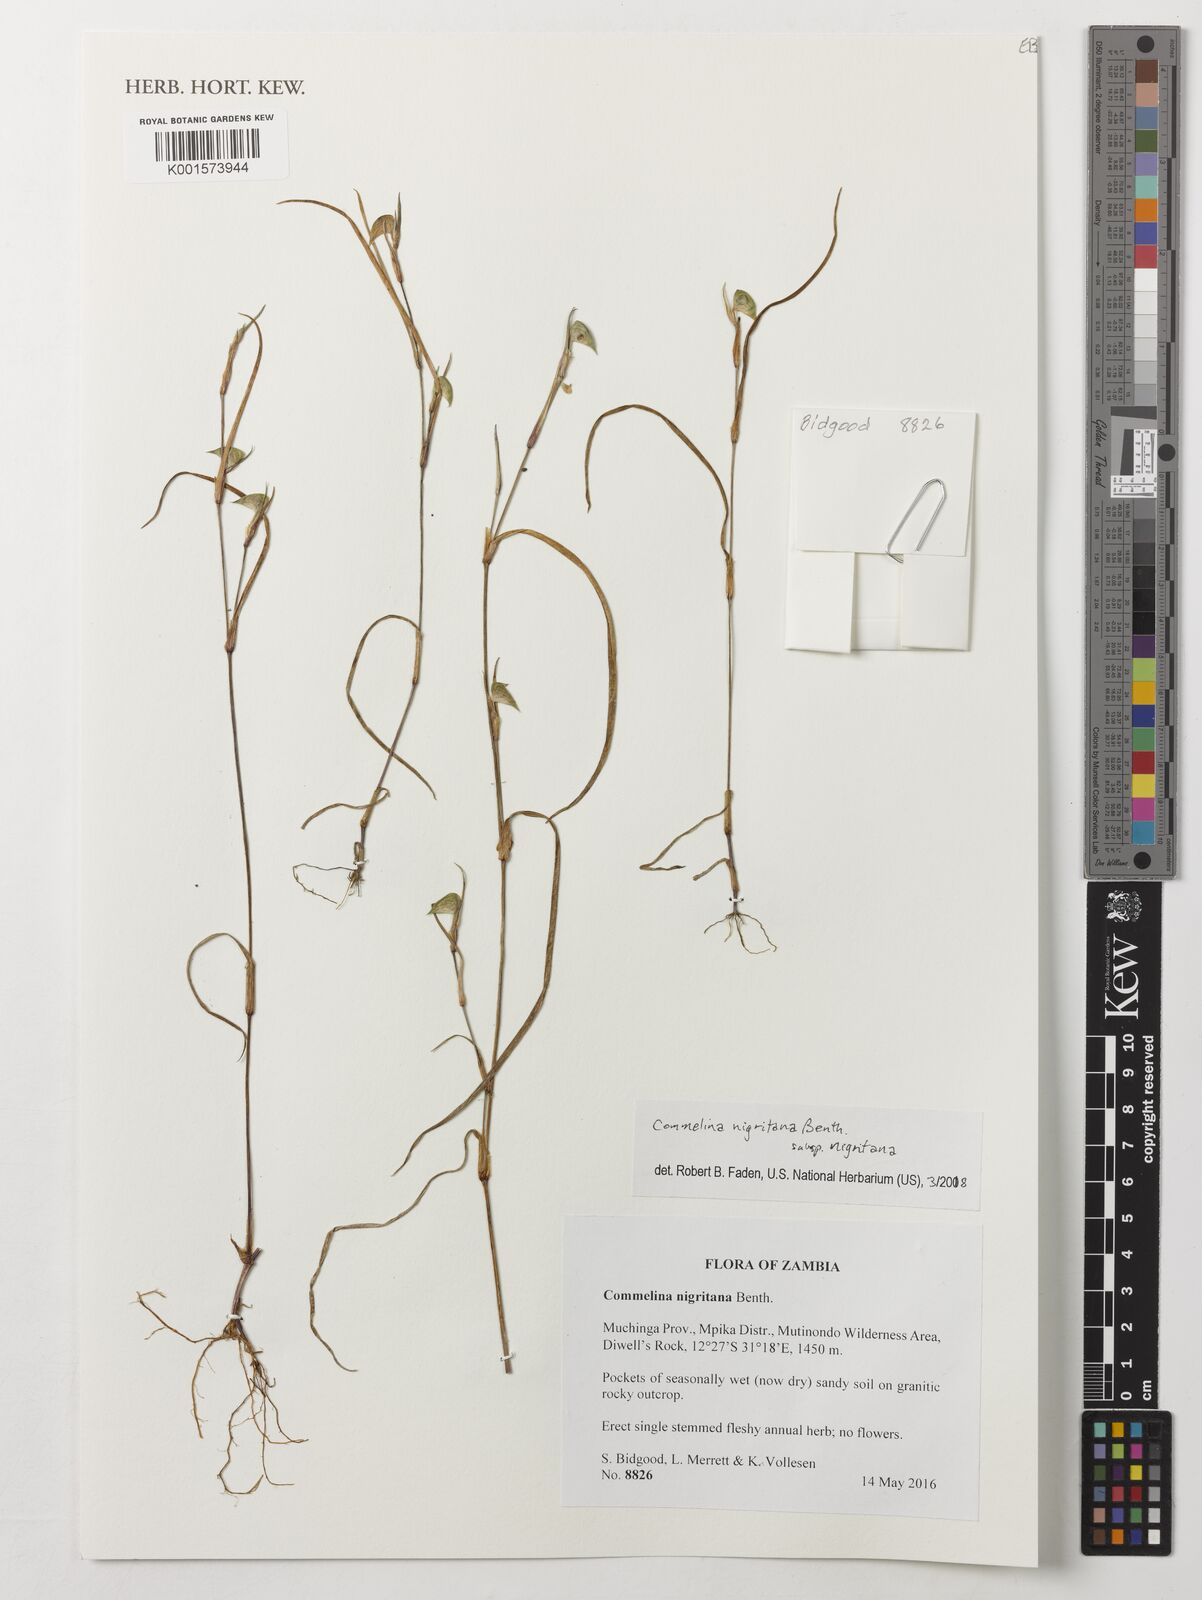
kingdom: Plantae
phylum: Tracheophyta
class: Liliopsida
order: Commelinales
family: Commelinaceae
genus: Commelina
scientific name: Commelina nigritana
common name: African dayflower
